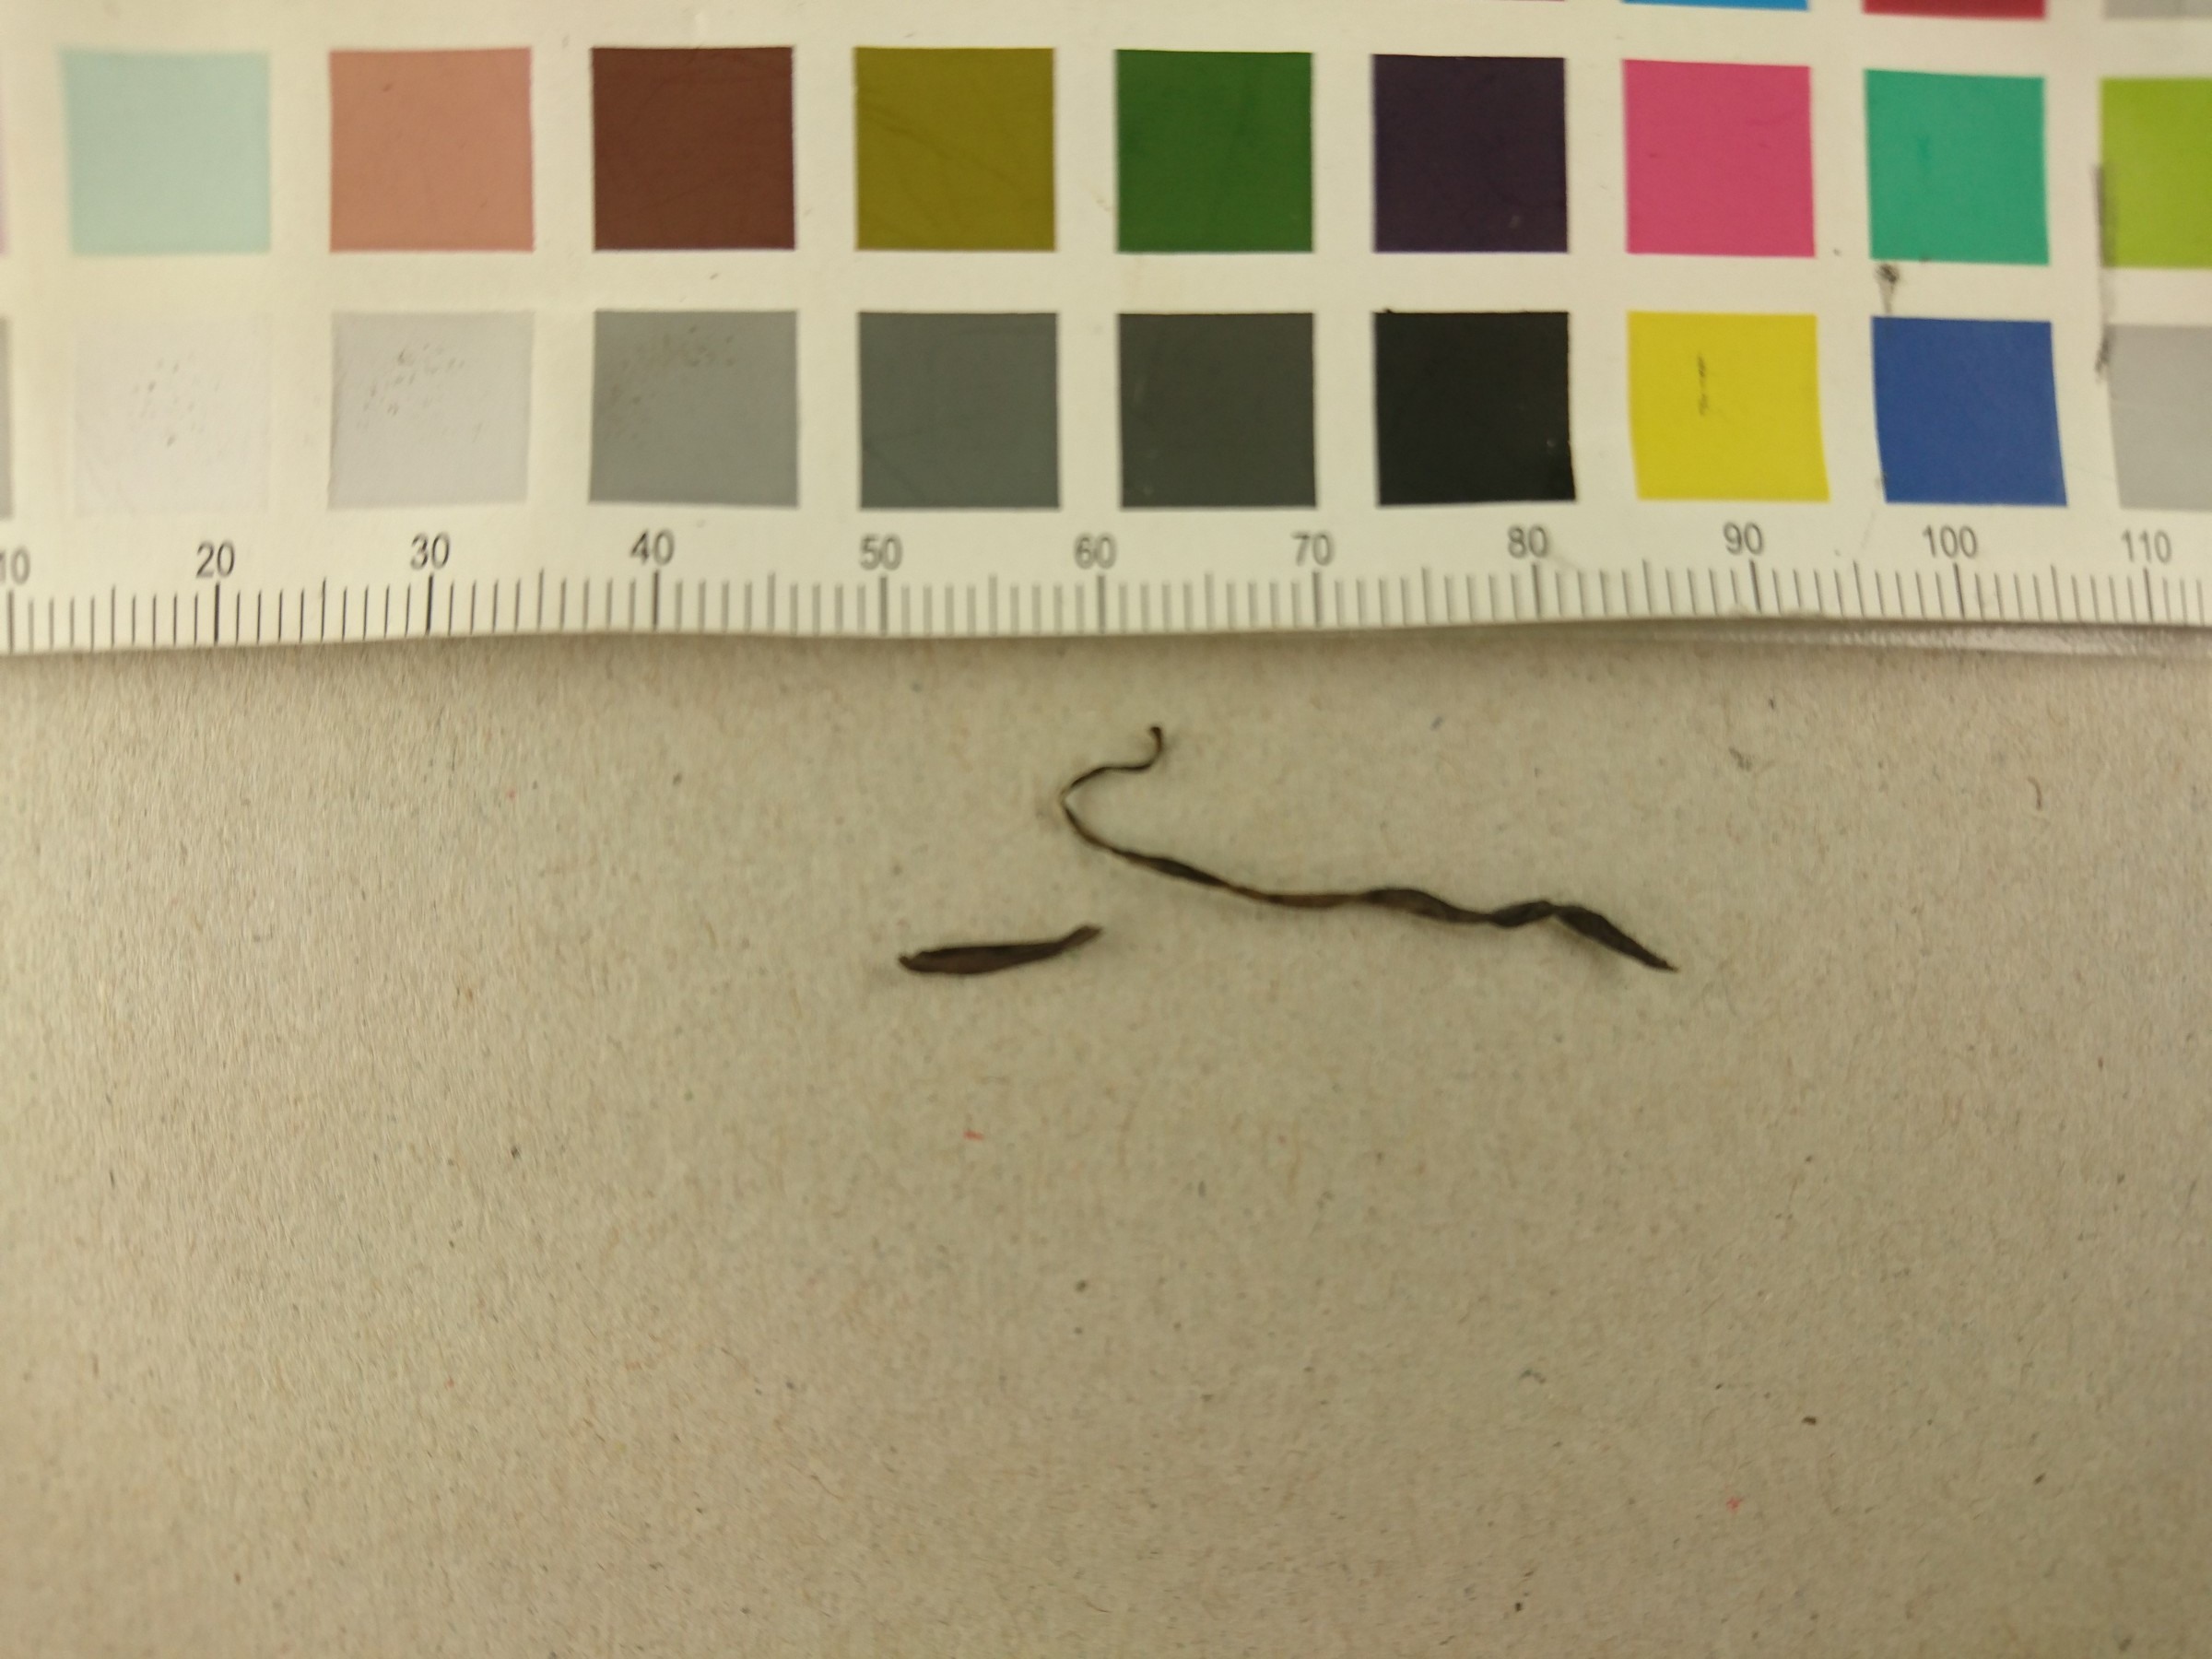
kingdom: Fungi
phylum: Basidiomycota
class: Agaricomycetes
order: Agaricales
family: Clavariaceae
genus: Ramariopsis
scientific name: Ramariopsis asperulospora
